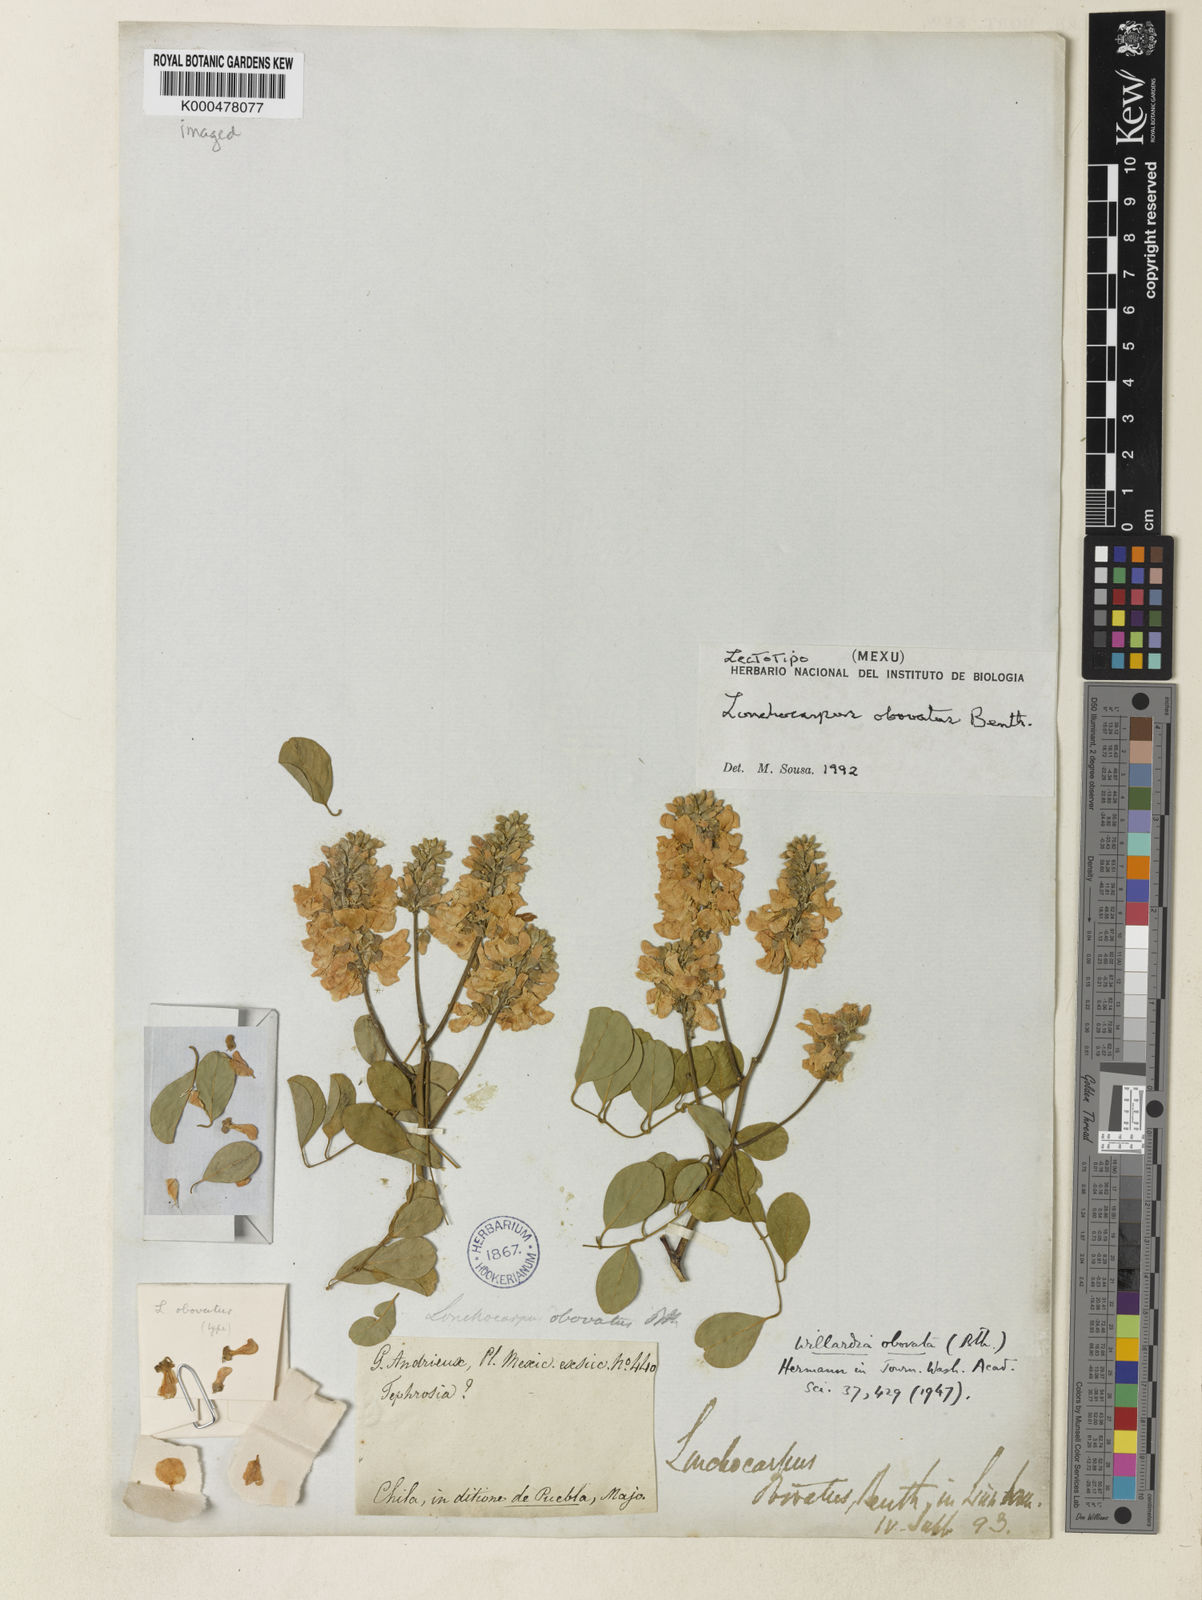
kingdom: Plantae
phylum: Tracheophyta
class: Magnoliopsida
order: Fabales
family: Fabaceae
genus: Lonchocarpus
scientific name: Lonchocarpus obovatus
